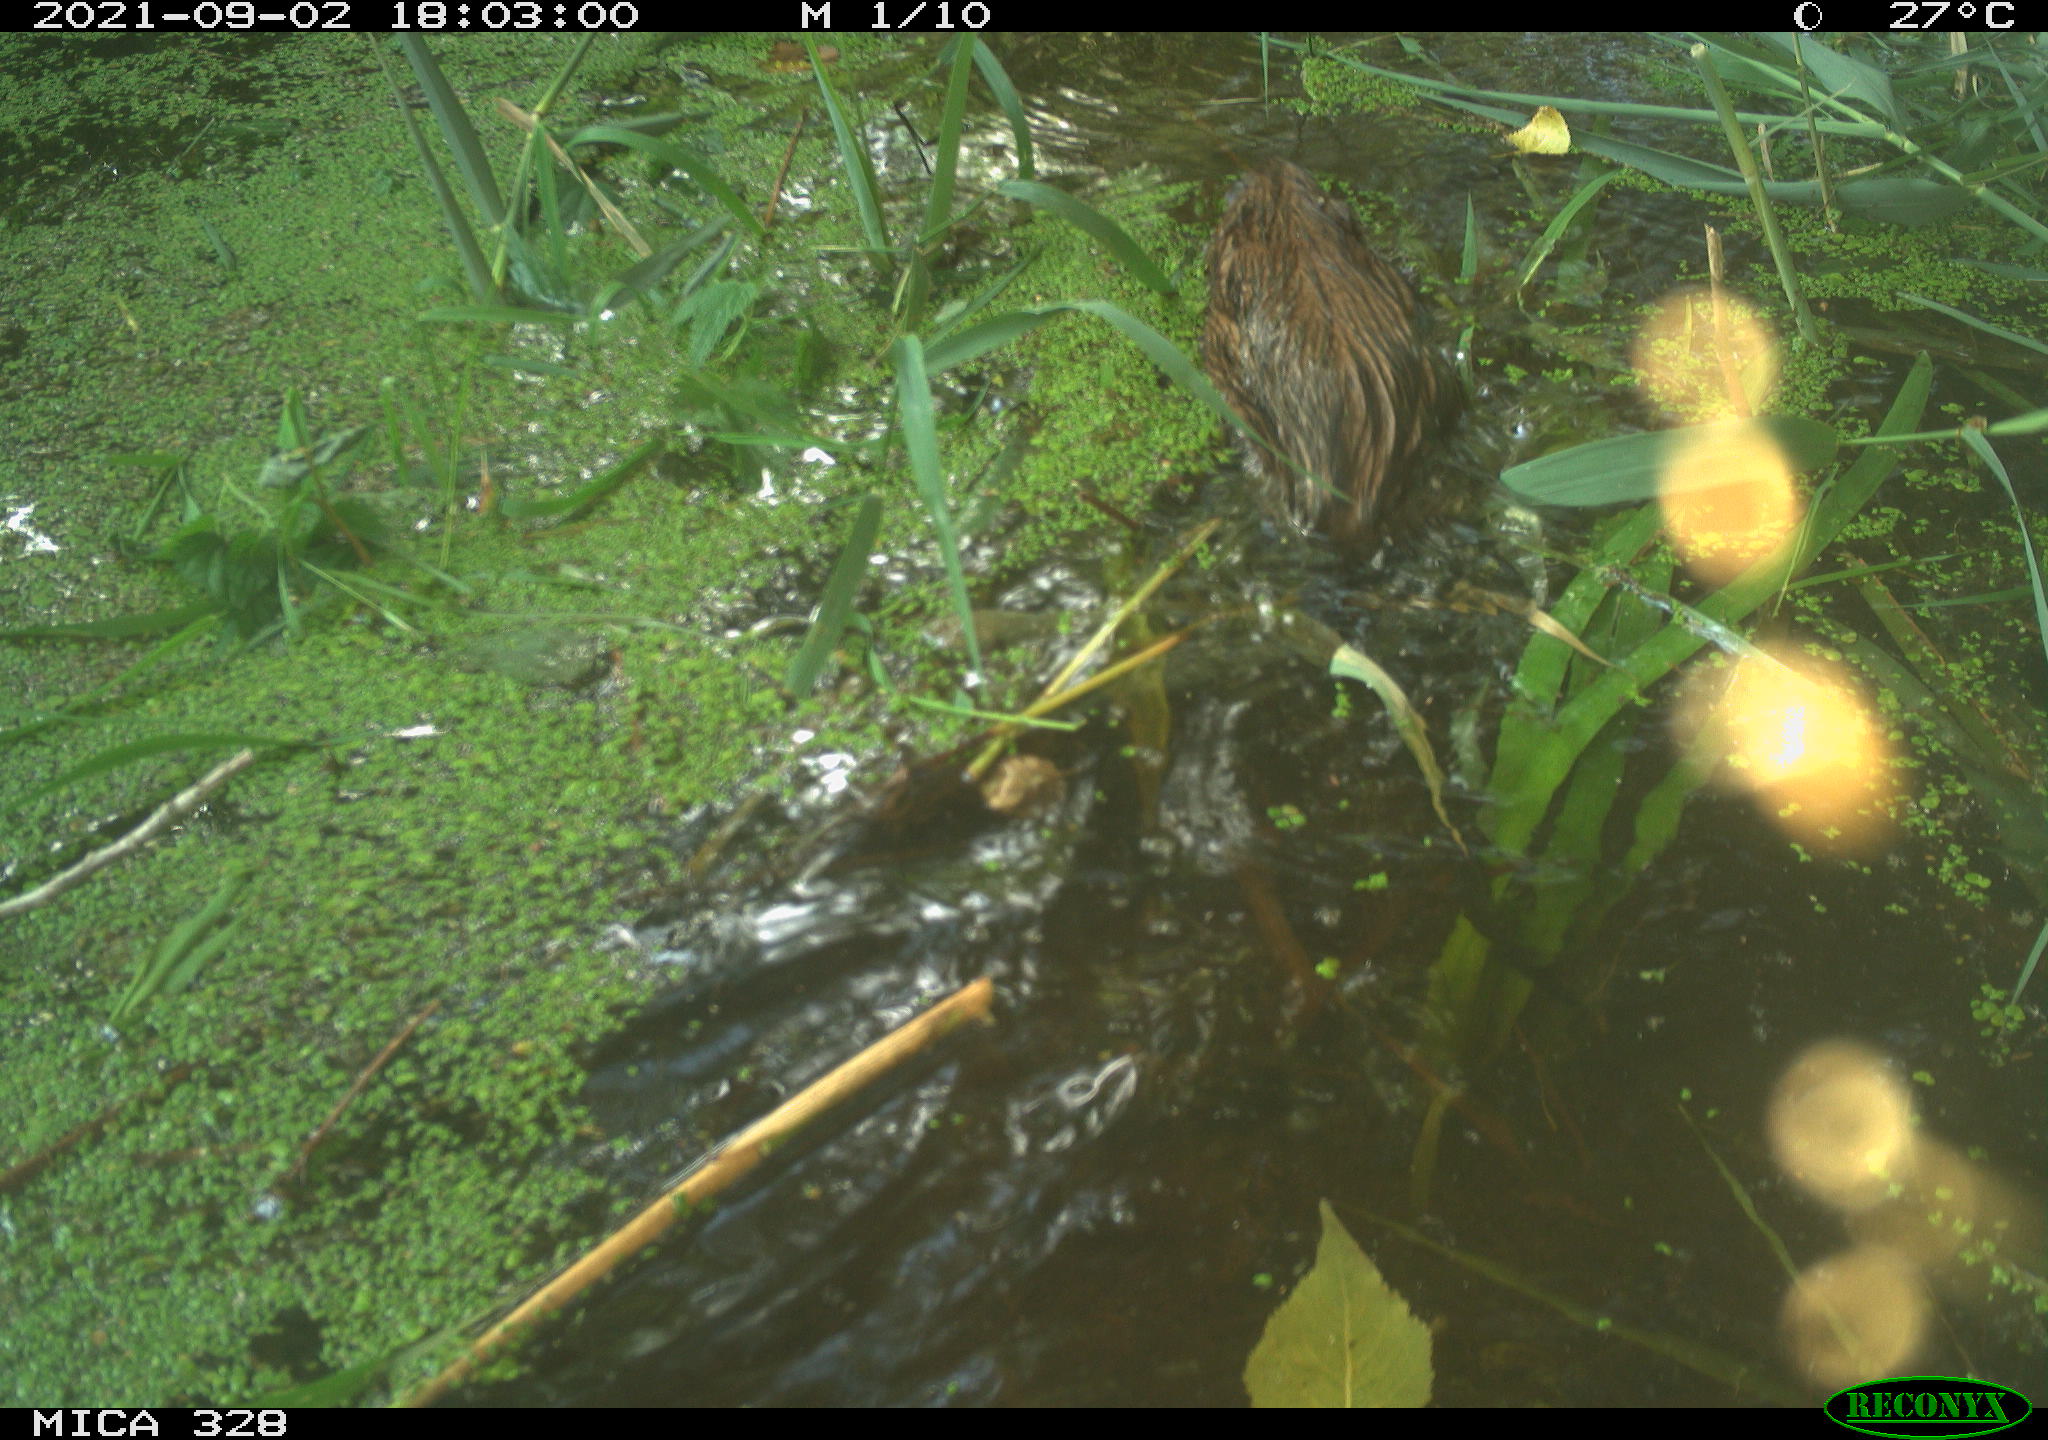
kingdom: Animalia
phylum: Chordata
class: Mammalia
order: Rodentia
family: Cricetidae
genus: Ondatra
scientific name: Ondatra zibethicus
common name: Muskrat
